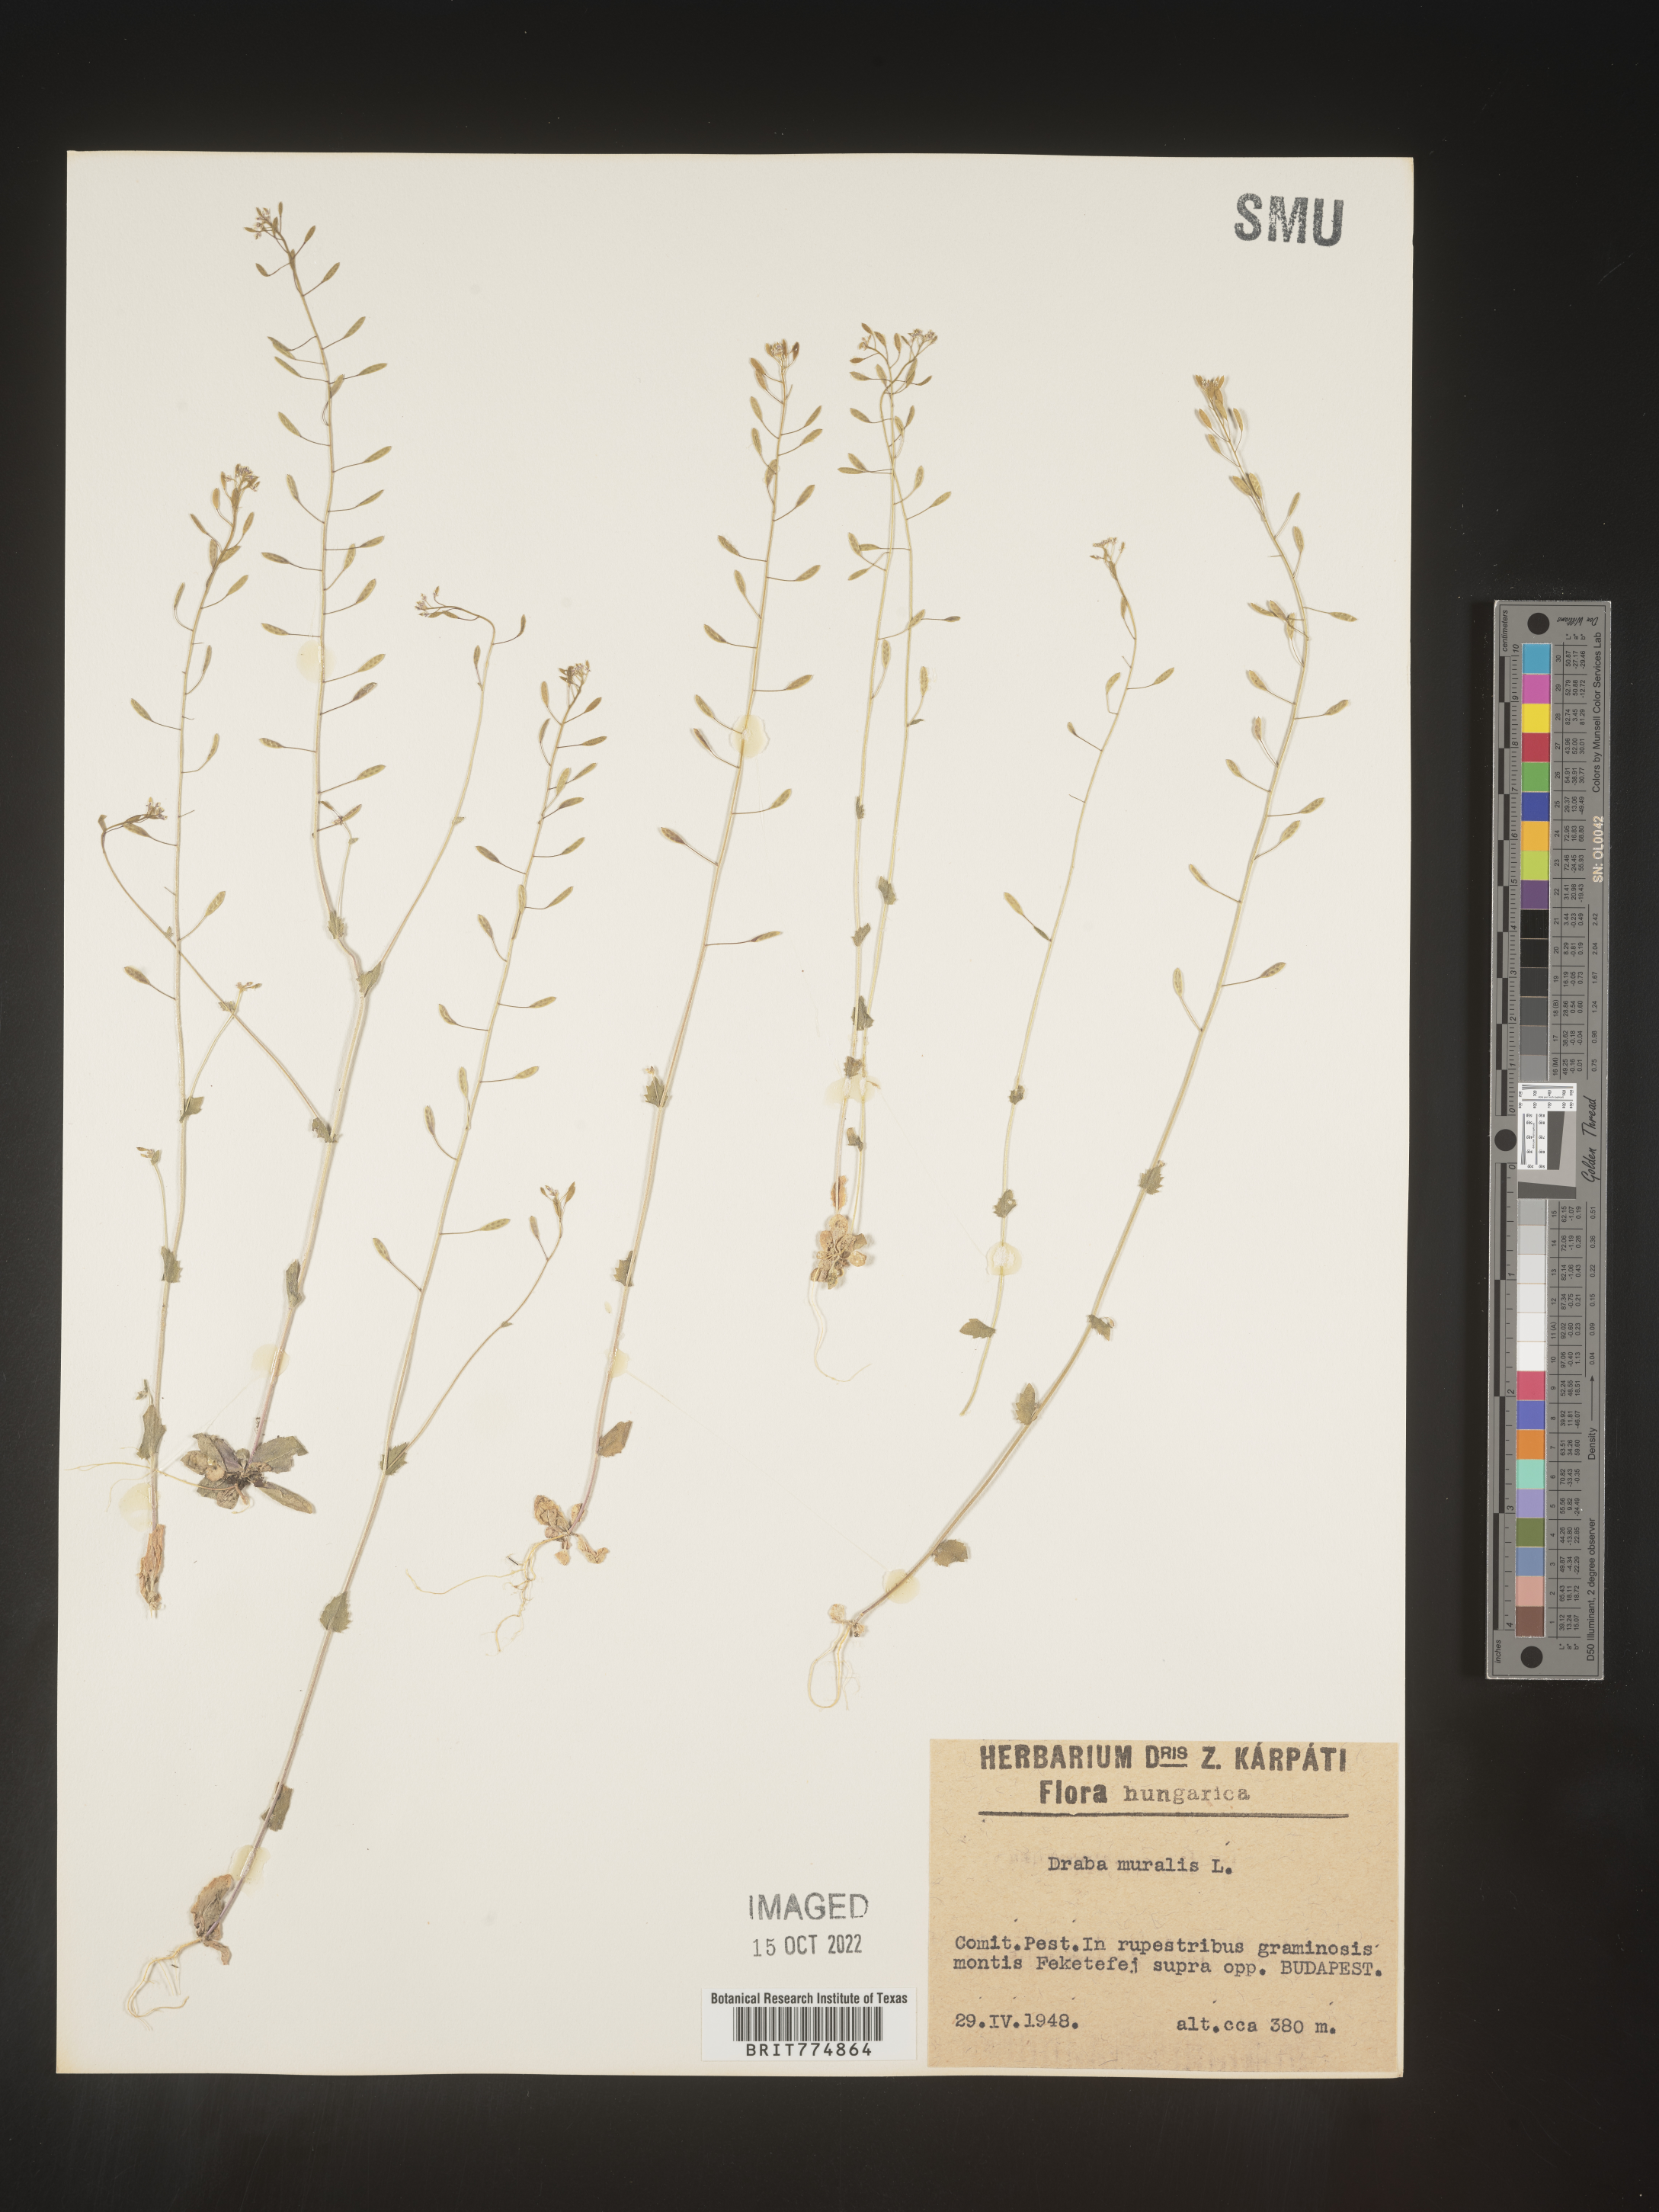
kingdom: Plantae
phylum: Tracheophyta
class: Magnoliopsida
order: Brassicales
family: Brassicaceae
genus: Draba
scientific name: Draba
